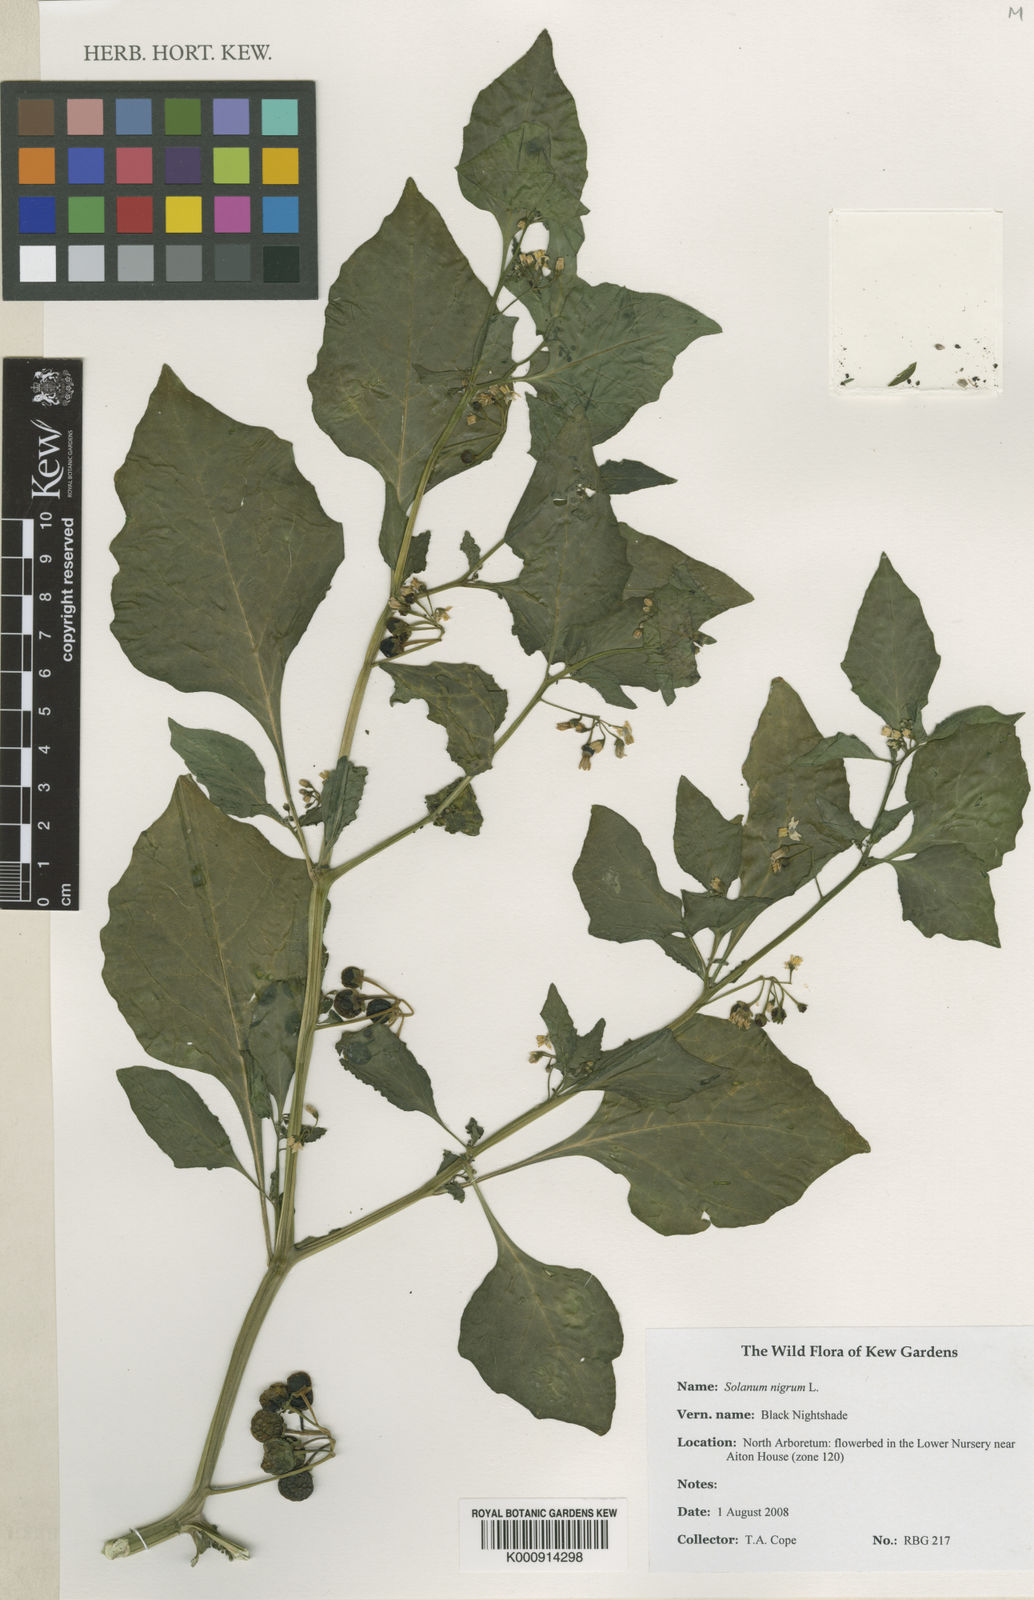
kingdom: Plantae
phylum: Tracheophyta
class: Magnoliopsida
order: Solanales
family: Solanaceae
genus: Solanum
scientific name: Solanum nigrum
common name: Black nightshade
